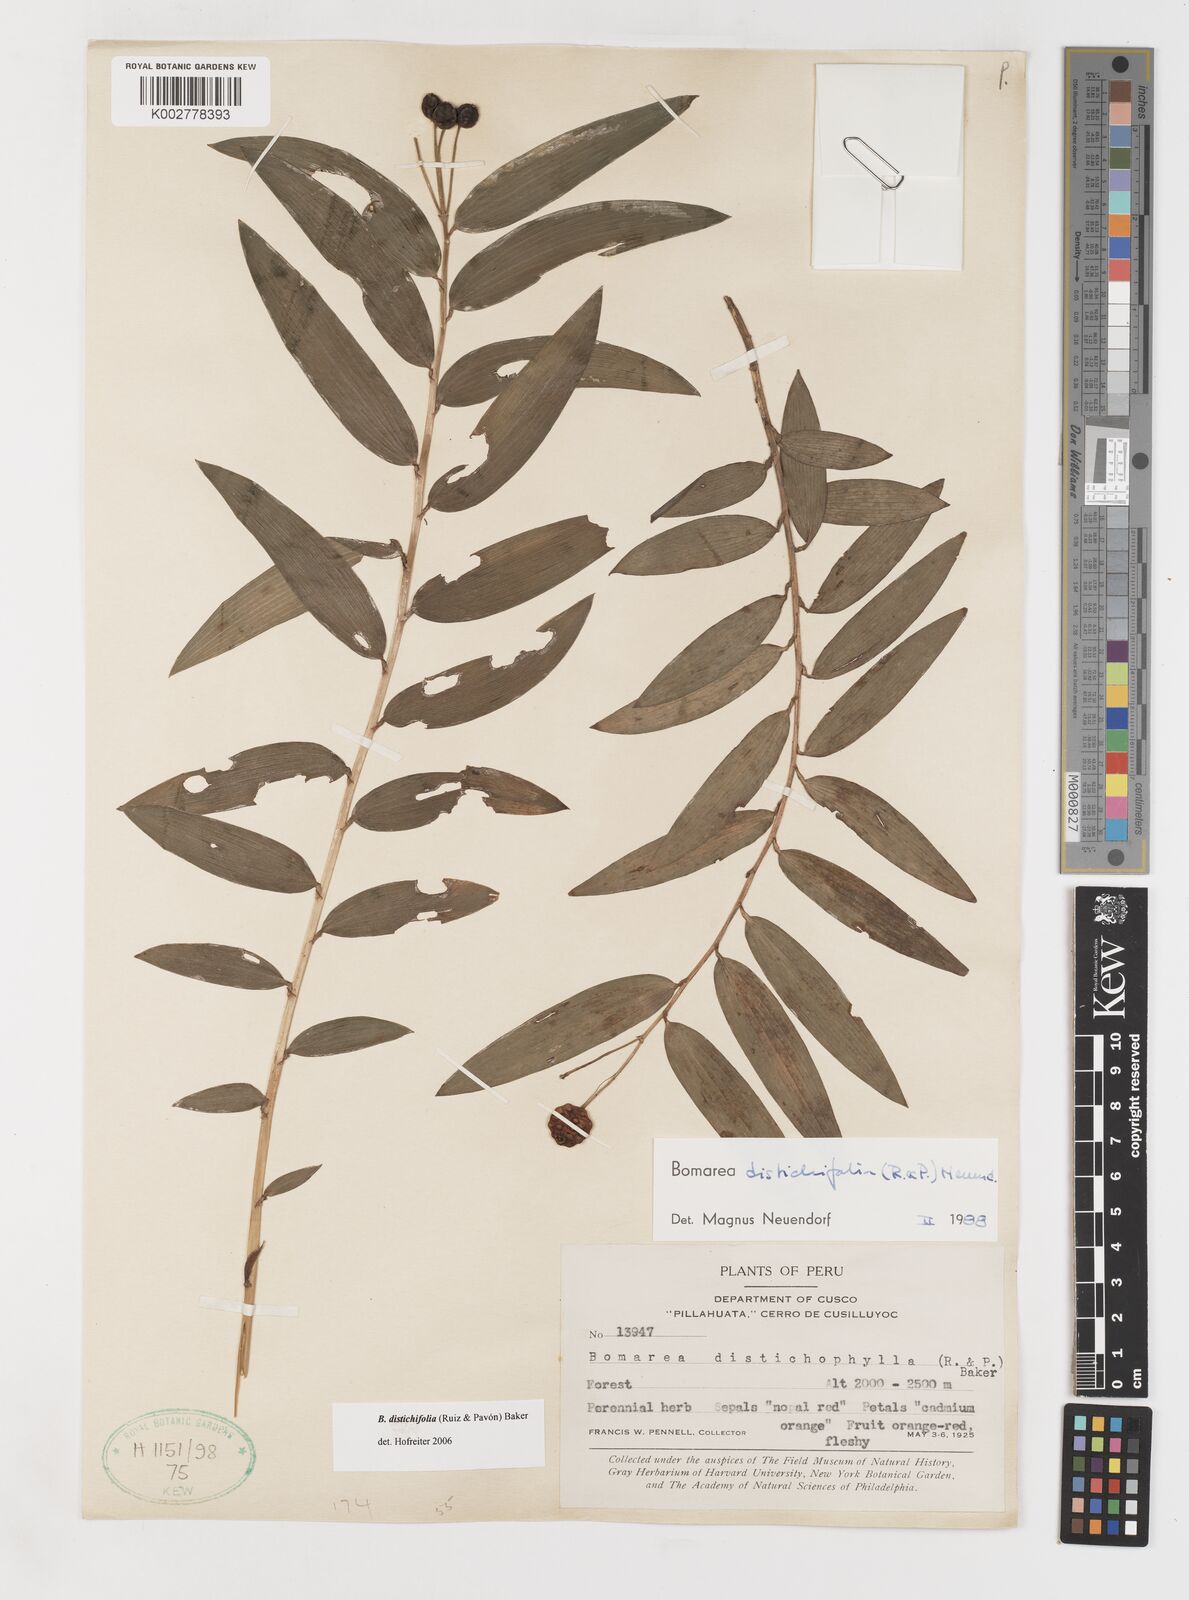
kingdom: Plantae
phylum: Tracheophyta
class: Liliopsida
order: Liliales
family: Alstroemeriaceae
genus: Bomarea
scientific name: Bomarea distichifolia
